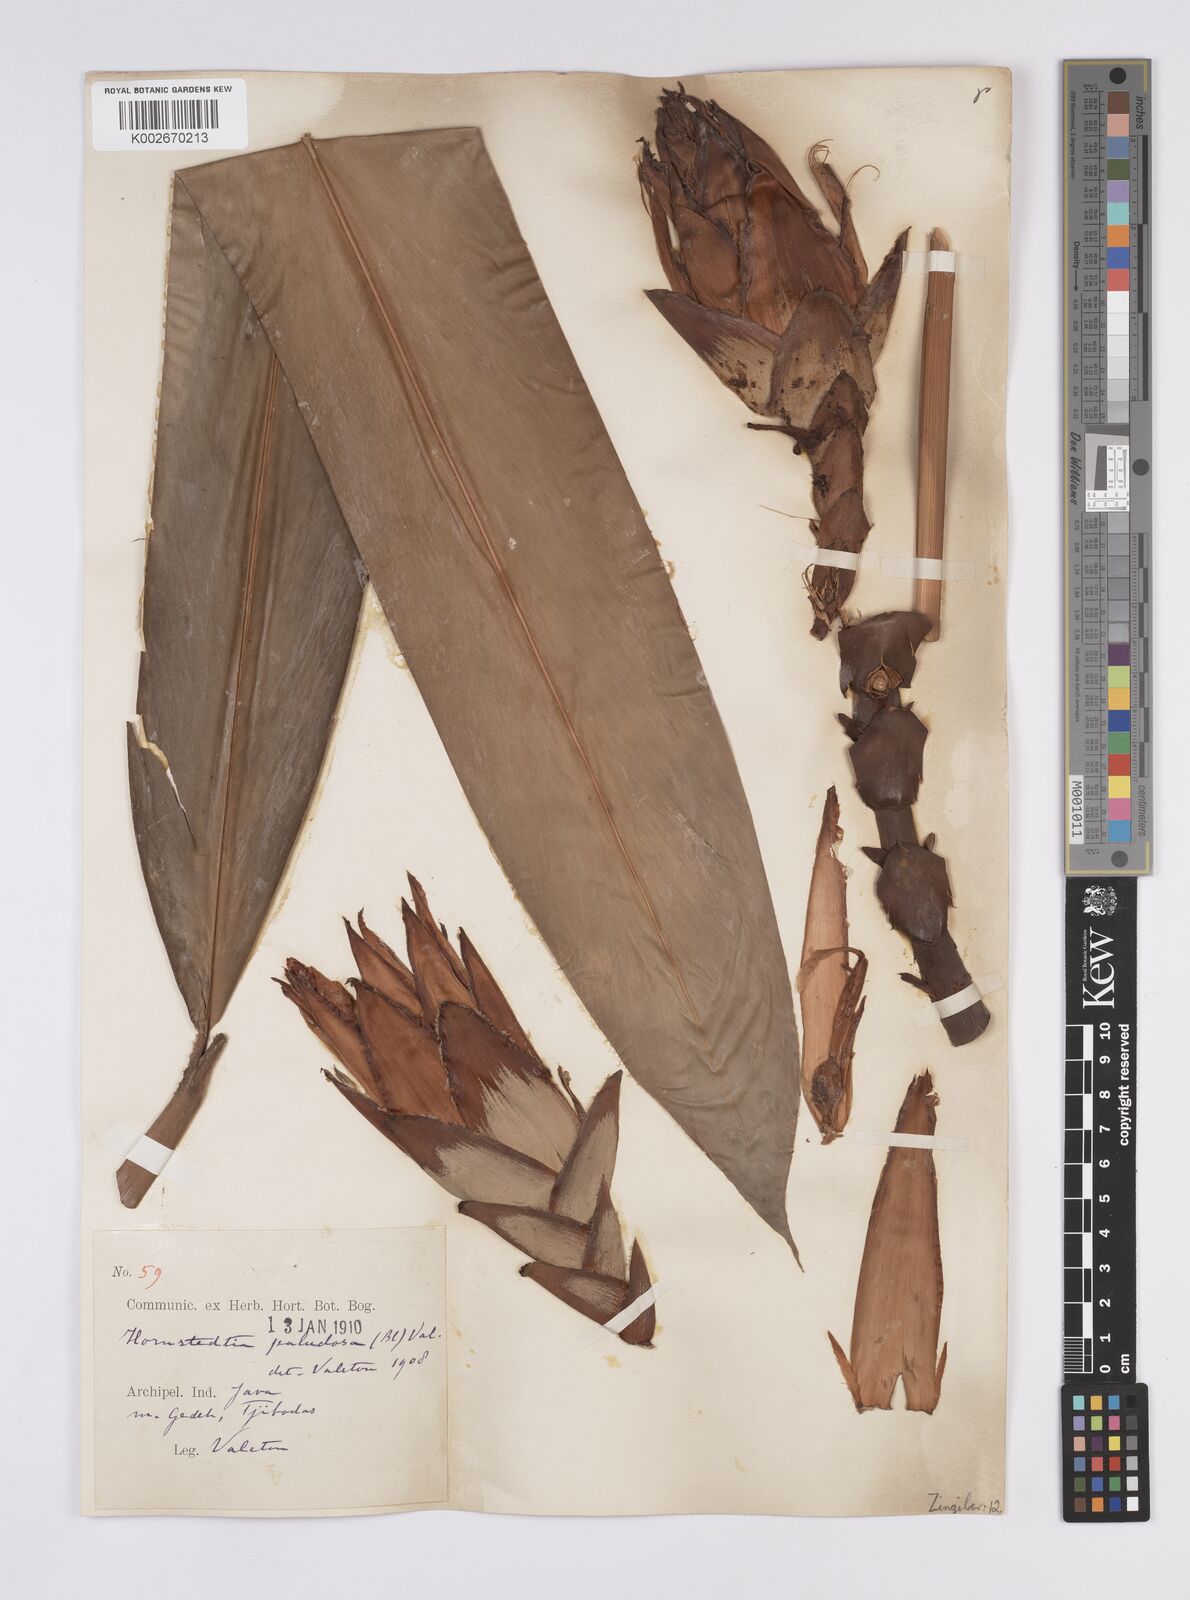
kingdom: Plantae
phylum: Tracheophyta
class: Liliopsida
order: Zingiberales
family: Zingiberaceae
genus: Hornstedtia
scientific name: Hornstedtia paludosa
